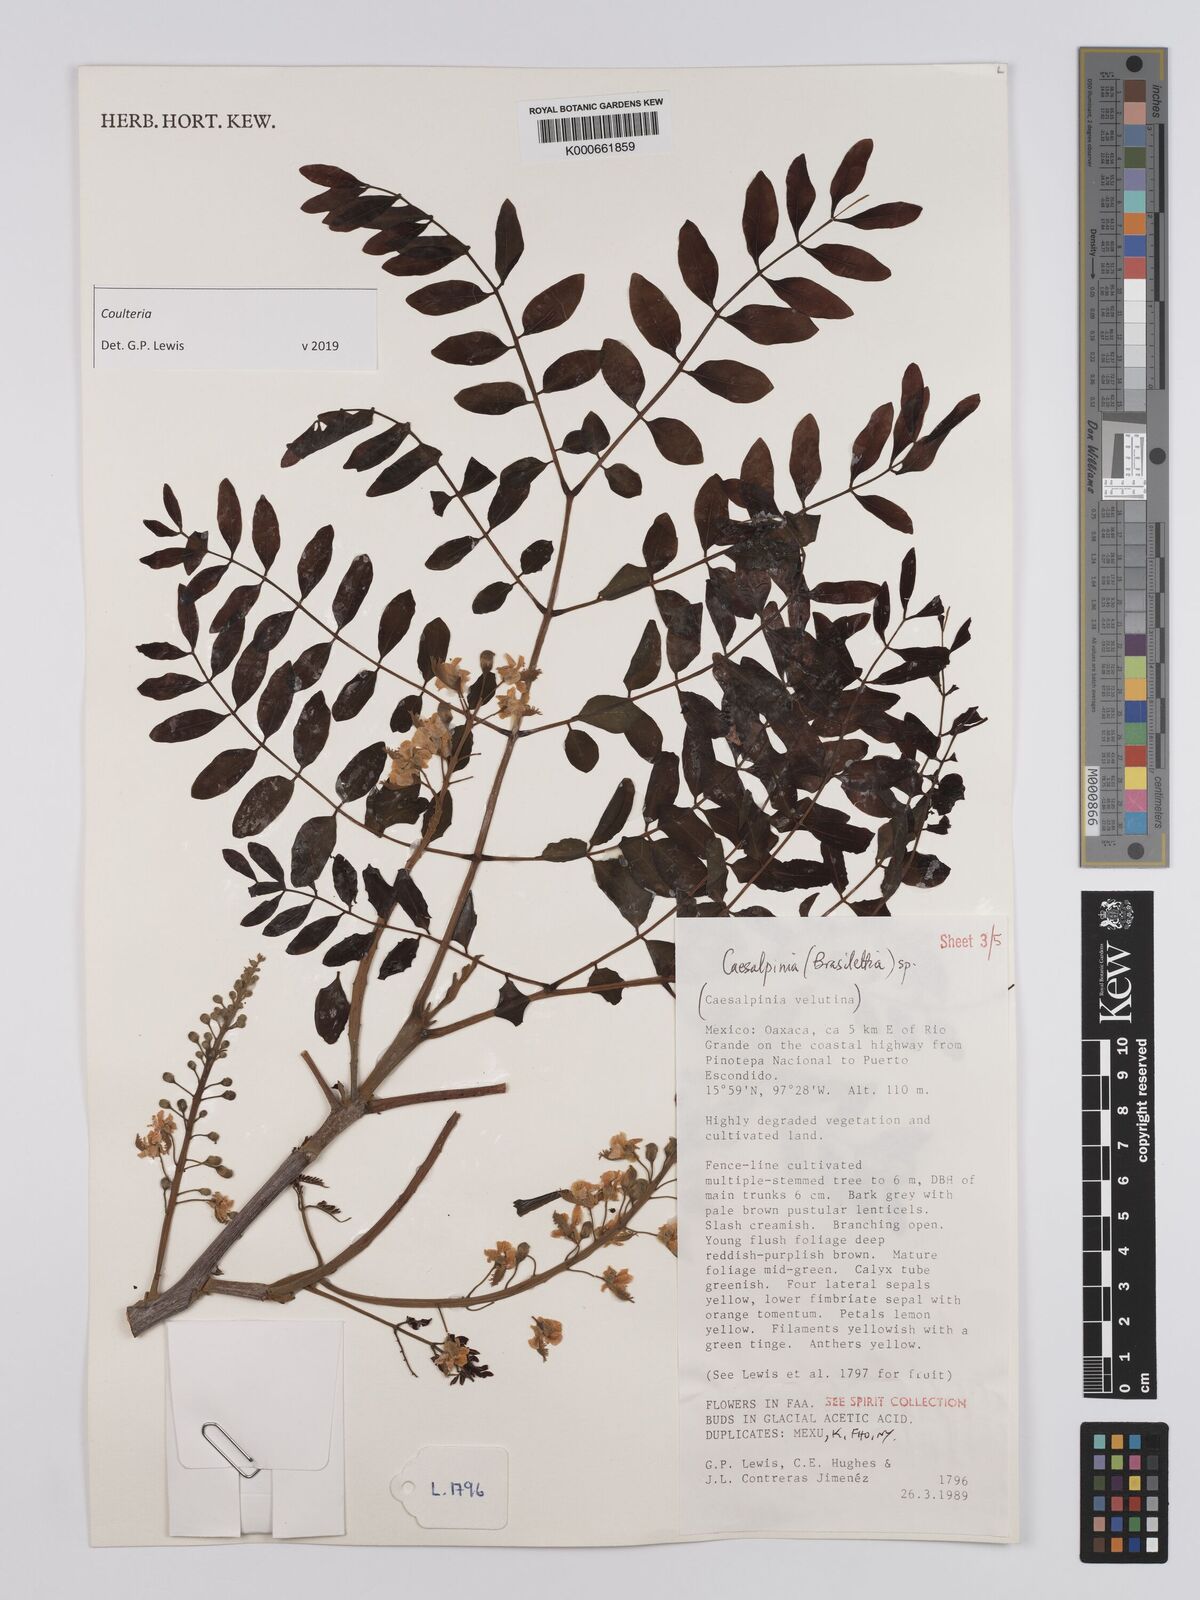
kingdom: Plantae
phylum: Tracheophyta
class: Magnoliopsida
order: Fabales
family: Fabaceae
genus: Coulteria
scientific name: Coulteria
